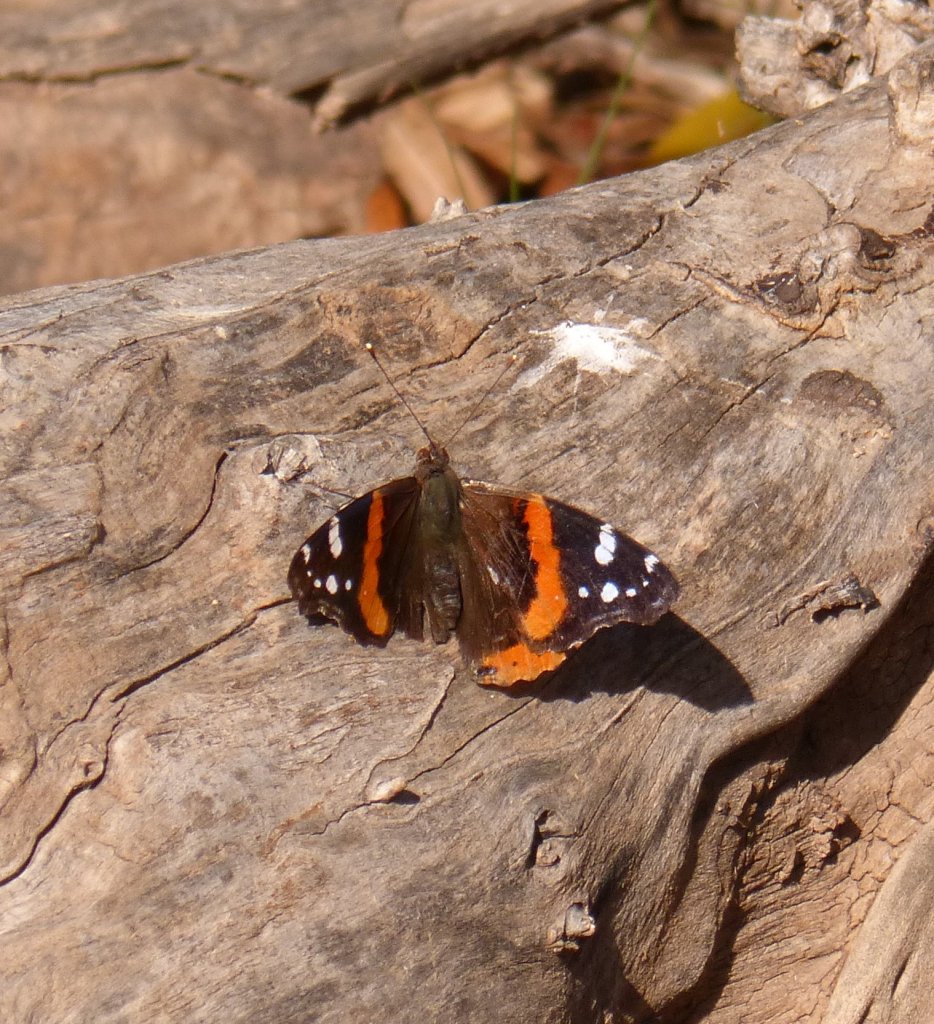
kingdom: Animalia
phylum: Arthropoda
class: Insecta
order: Lepidoptera
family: Nymphalidae
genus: Vanessa
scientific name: Vanessa atalanta
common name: Red Admiral
